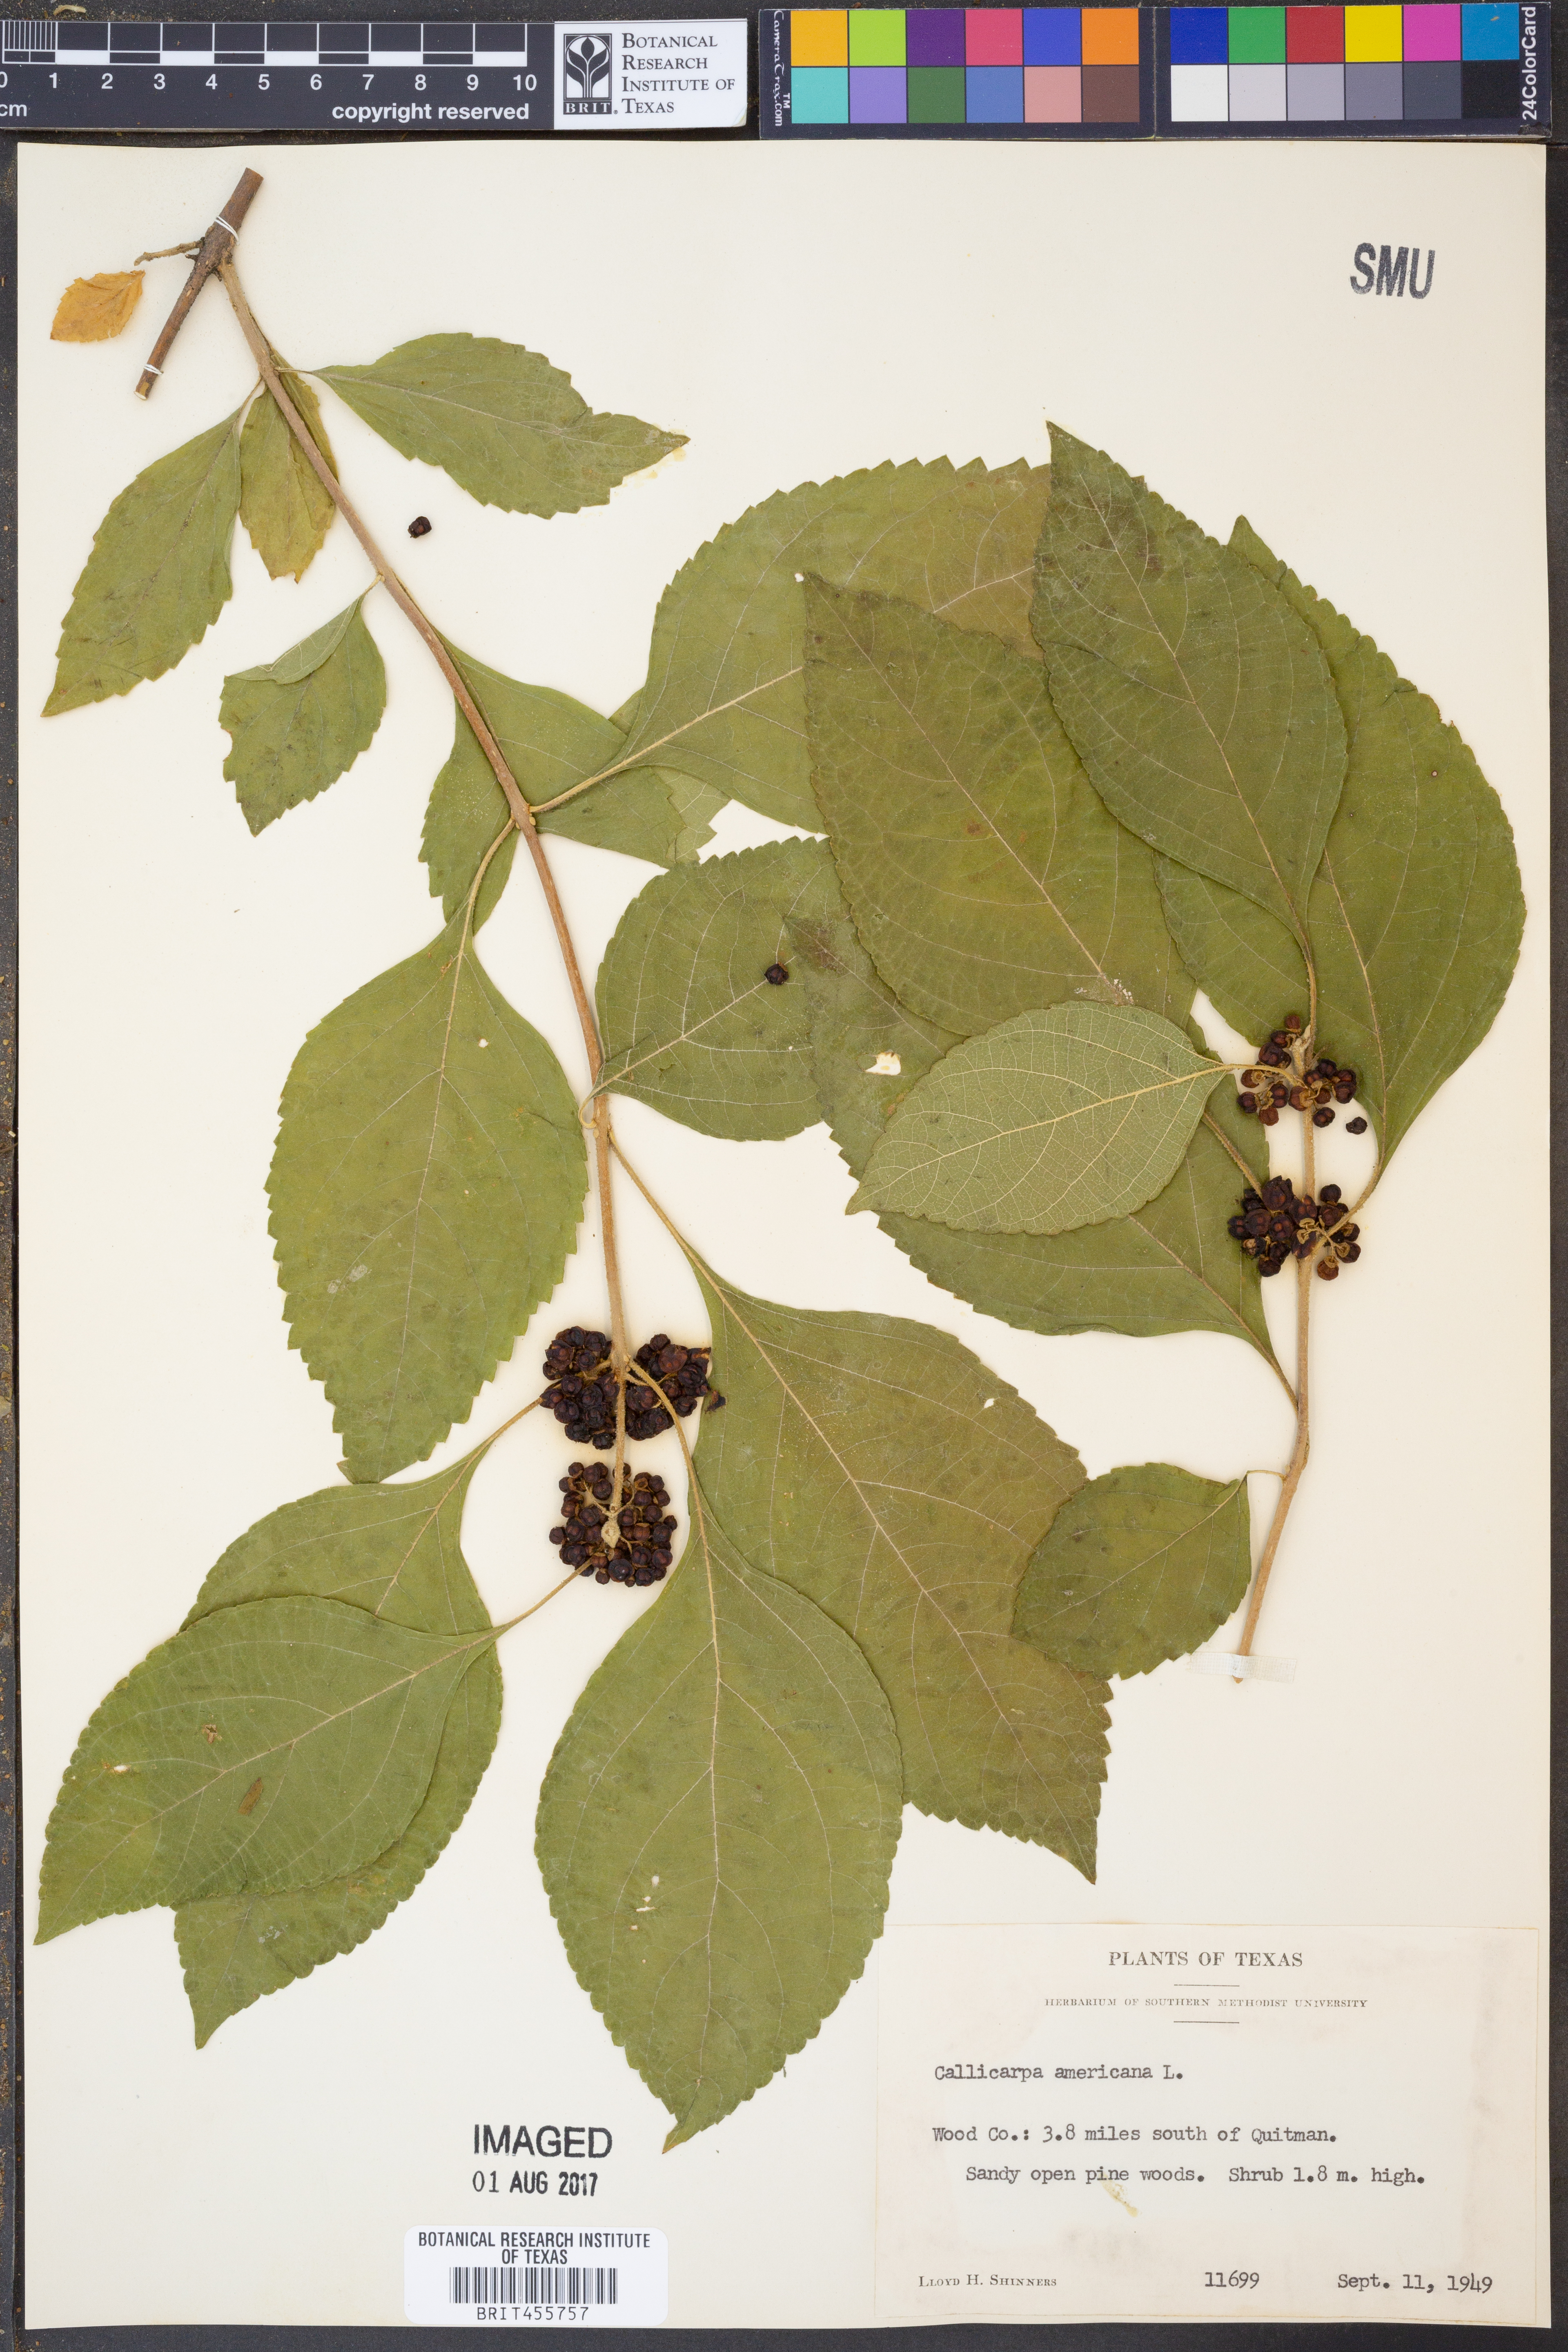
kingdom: Plantae
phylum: Tracheophyta
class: Magnoliopsida
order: Lamiales
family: Lamiaceae
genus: Callicarpa
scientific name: Callicarpa americana
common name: American beautyberry
